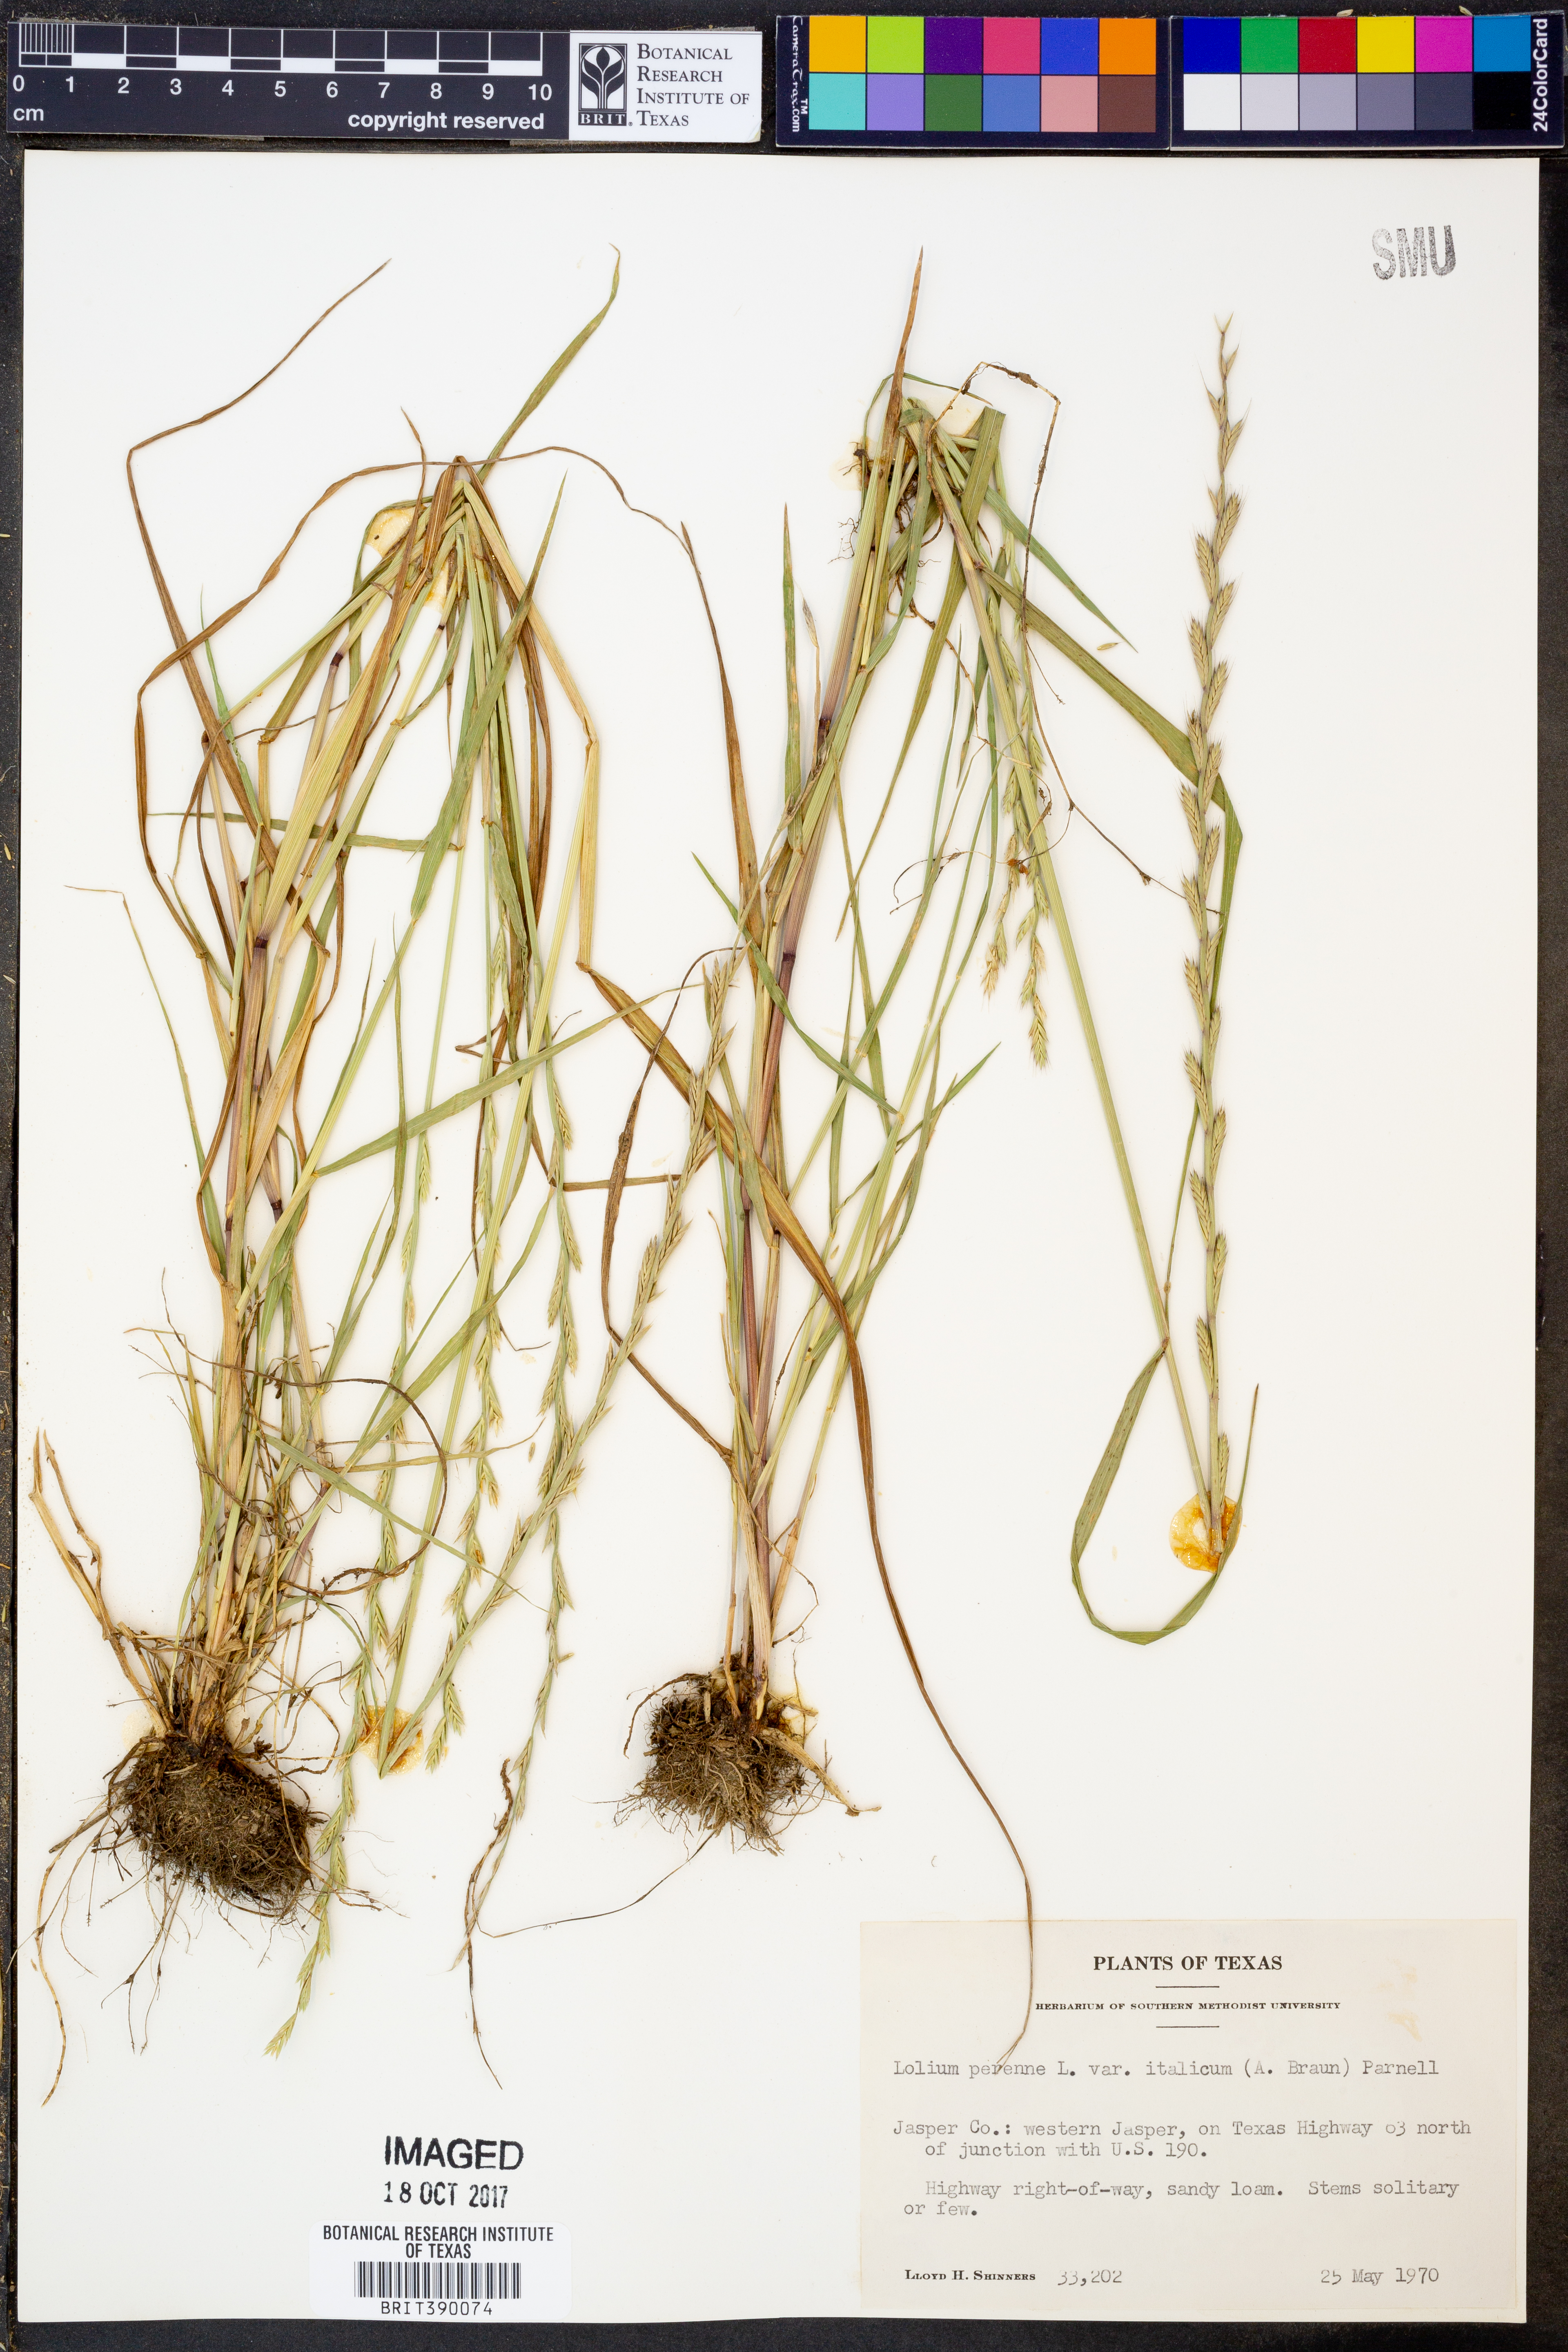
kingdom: Plantae
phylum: Tracheophyta
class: Liliopsida
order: Poales
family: Poaceae
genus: Lolium
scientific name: Lolium perenne
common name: Perennial ryegrass
